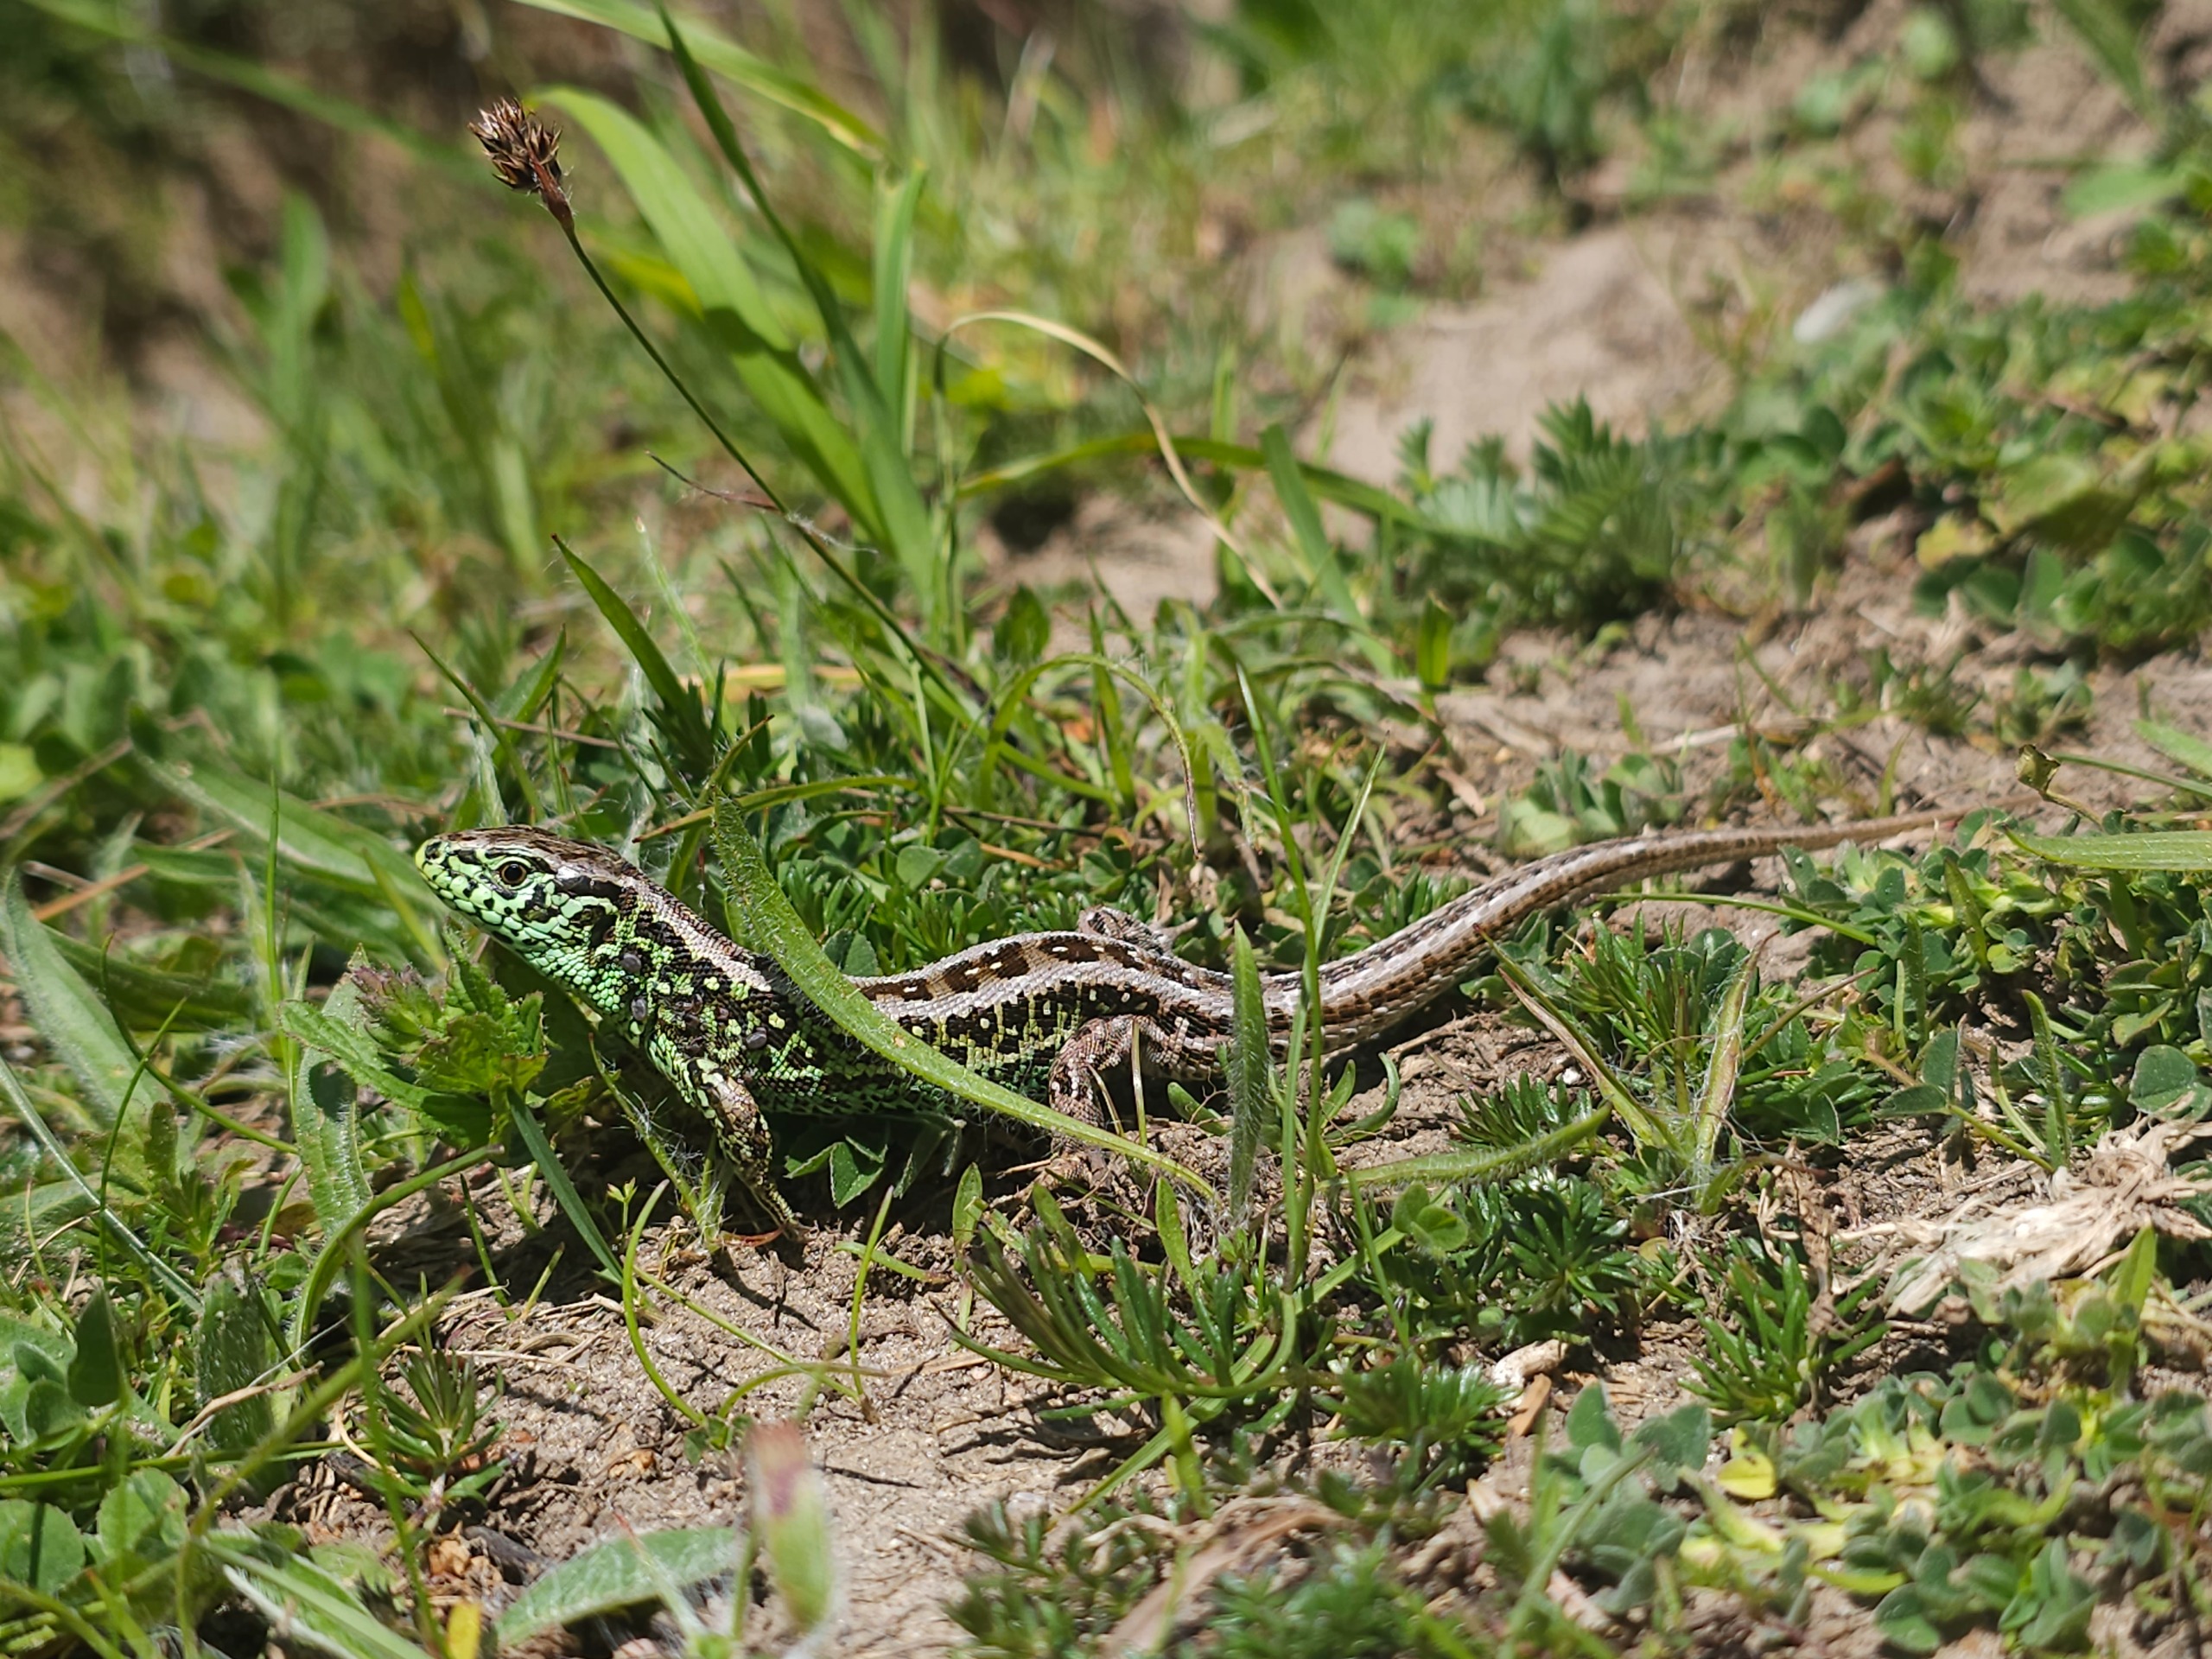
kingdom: Animalia
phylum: Chordata
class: Squamata
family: Lacertidae
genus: Lacerta
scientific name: Lacerta agilis
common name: Markfirben
